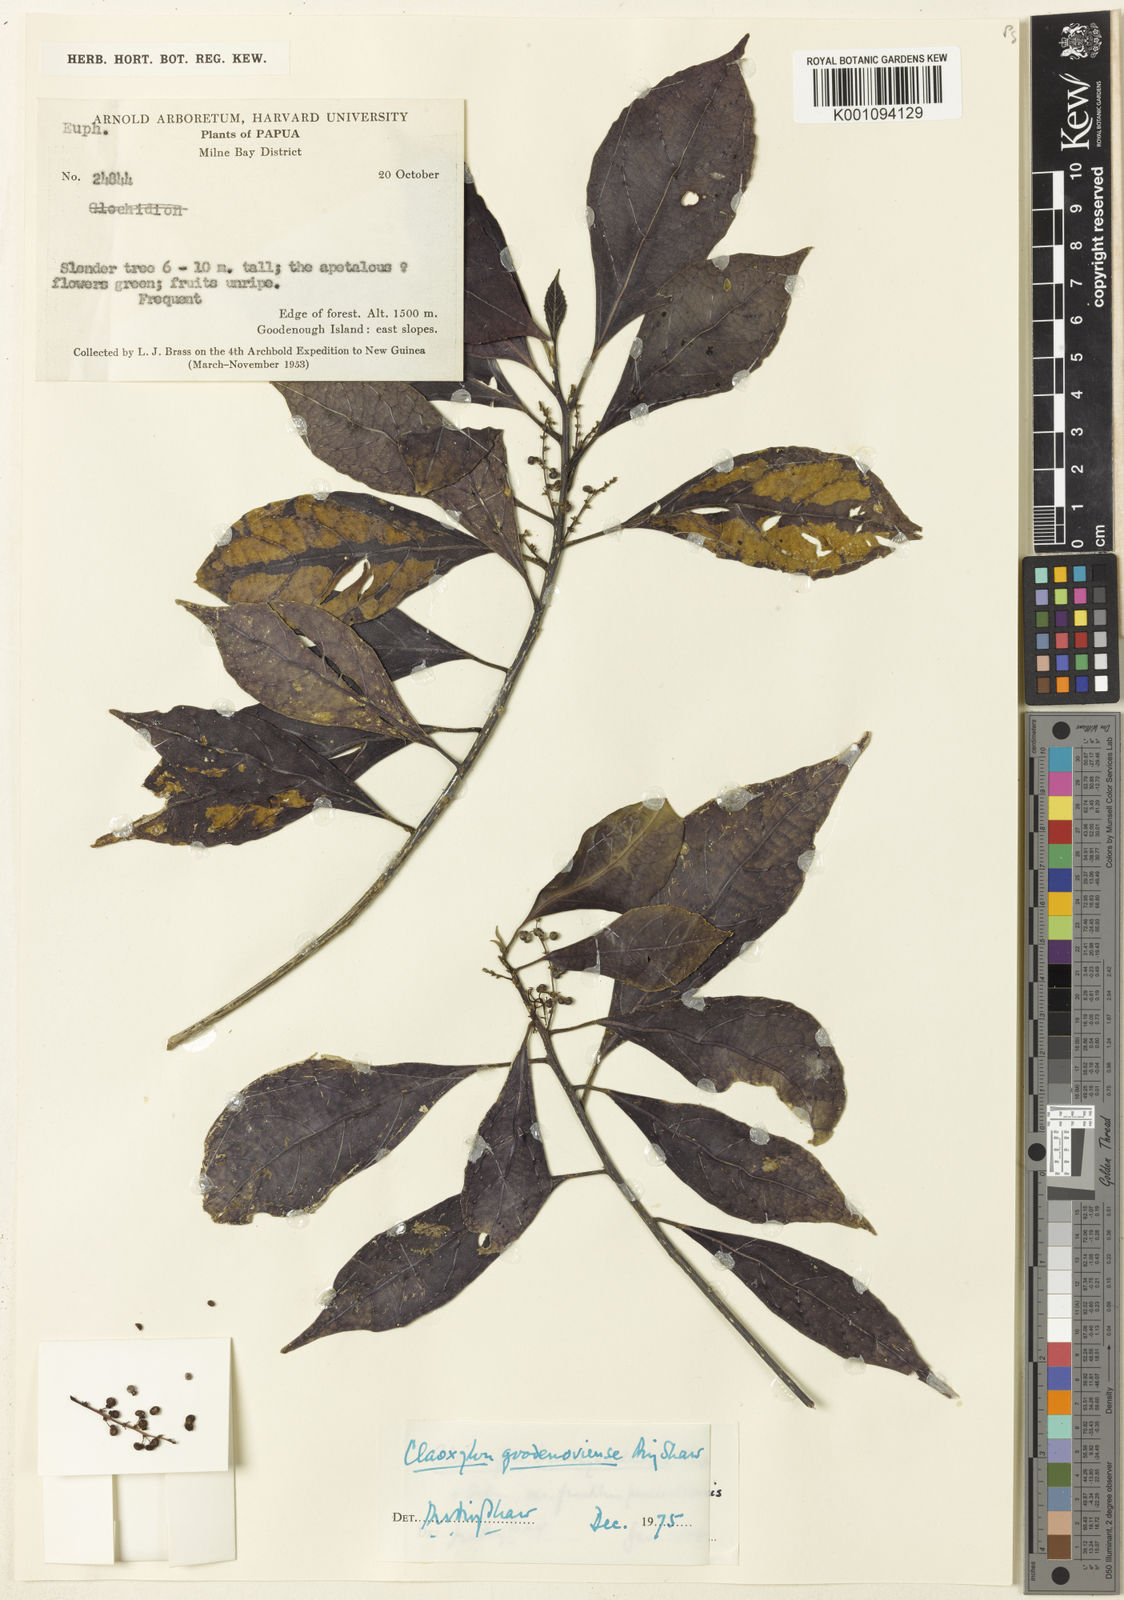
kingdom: Plantae
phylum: Tracheophyta
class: Magnoliopsida
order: Malpighiales
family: Euphorbiaceae
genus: Claoxylon
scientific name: Claoxylon goodenoviense
